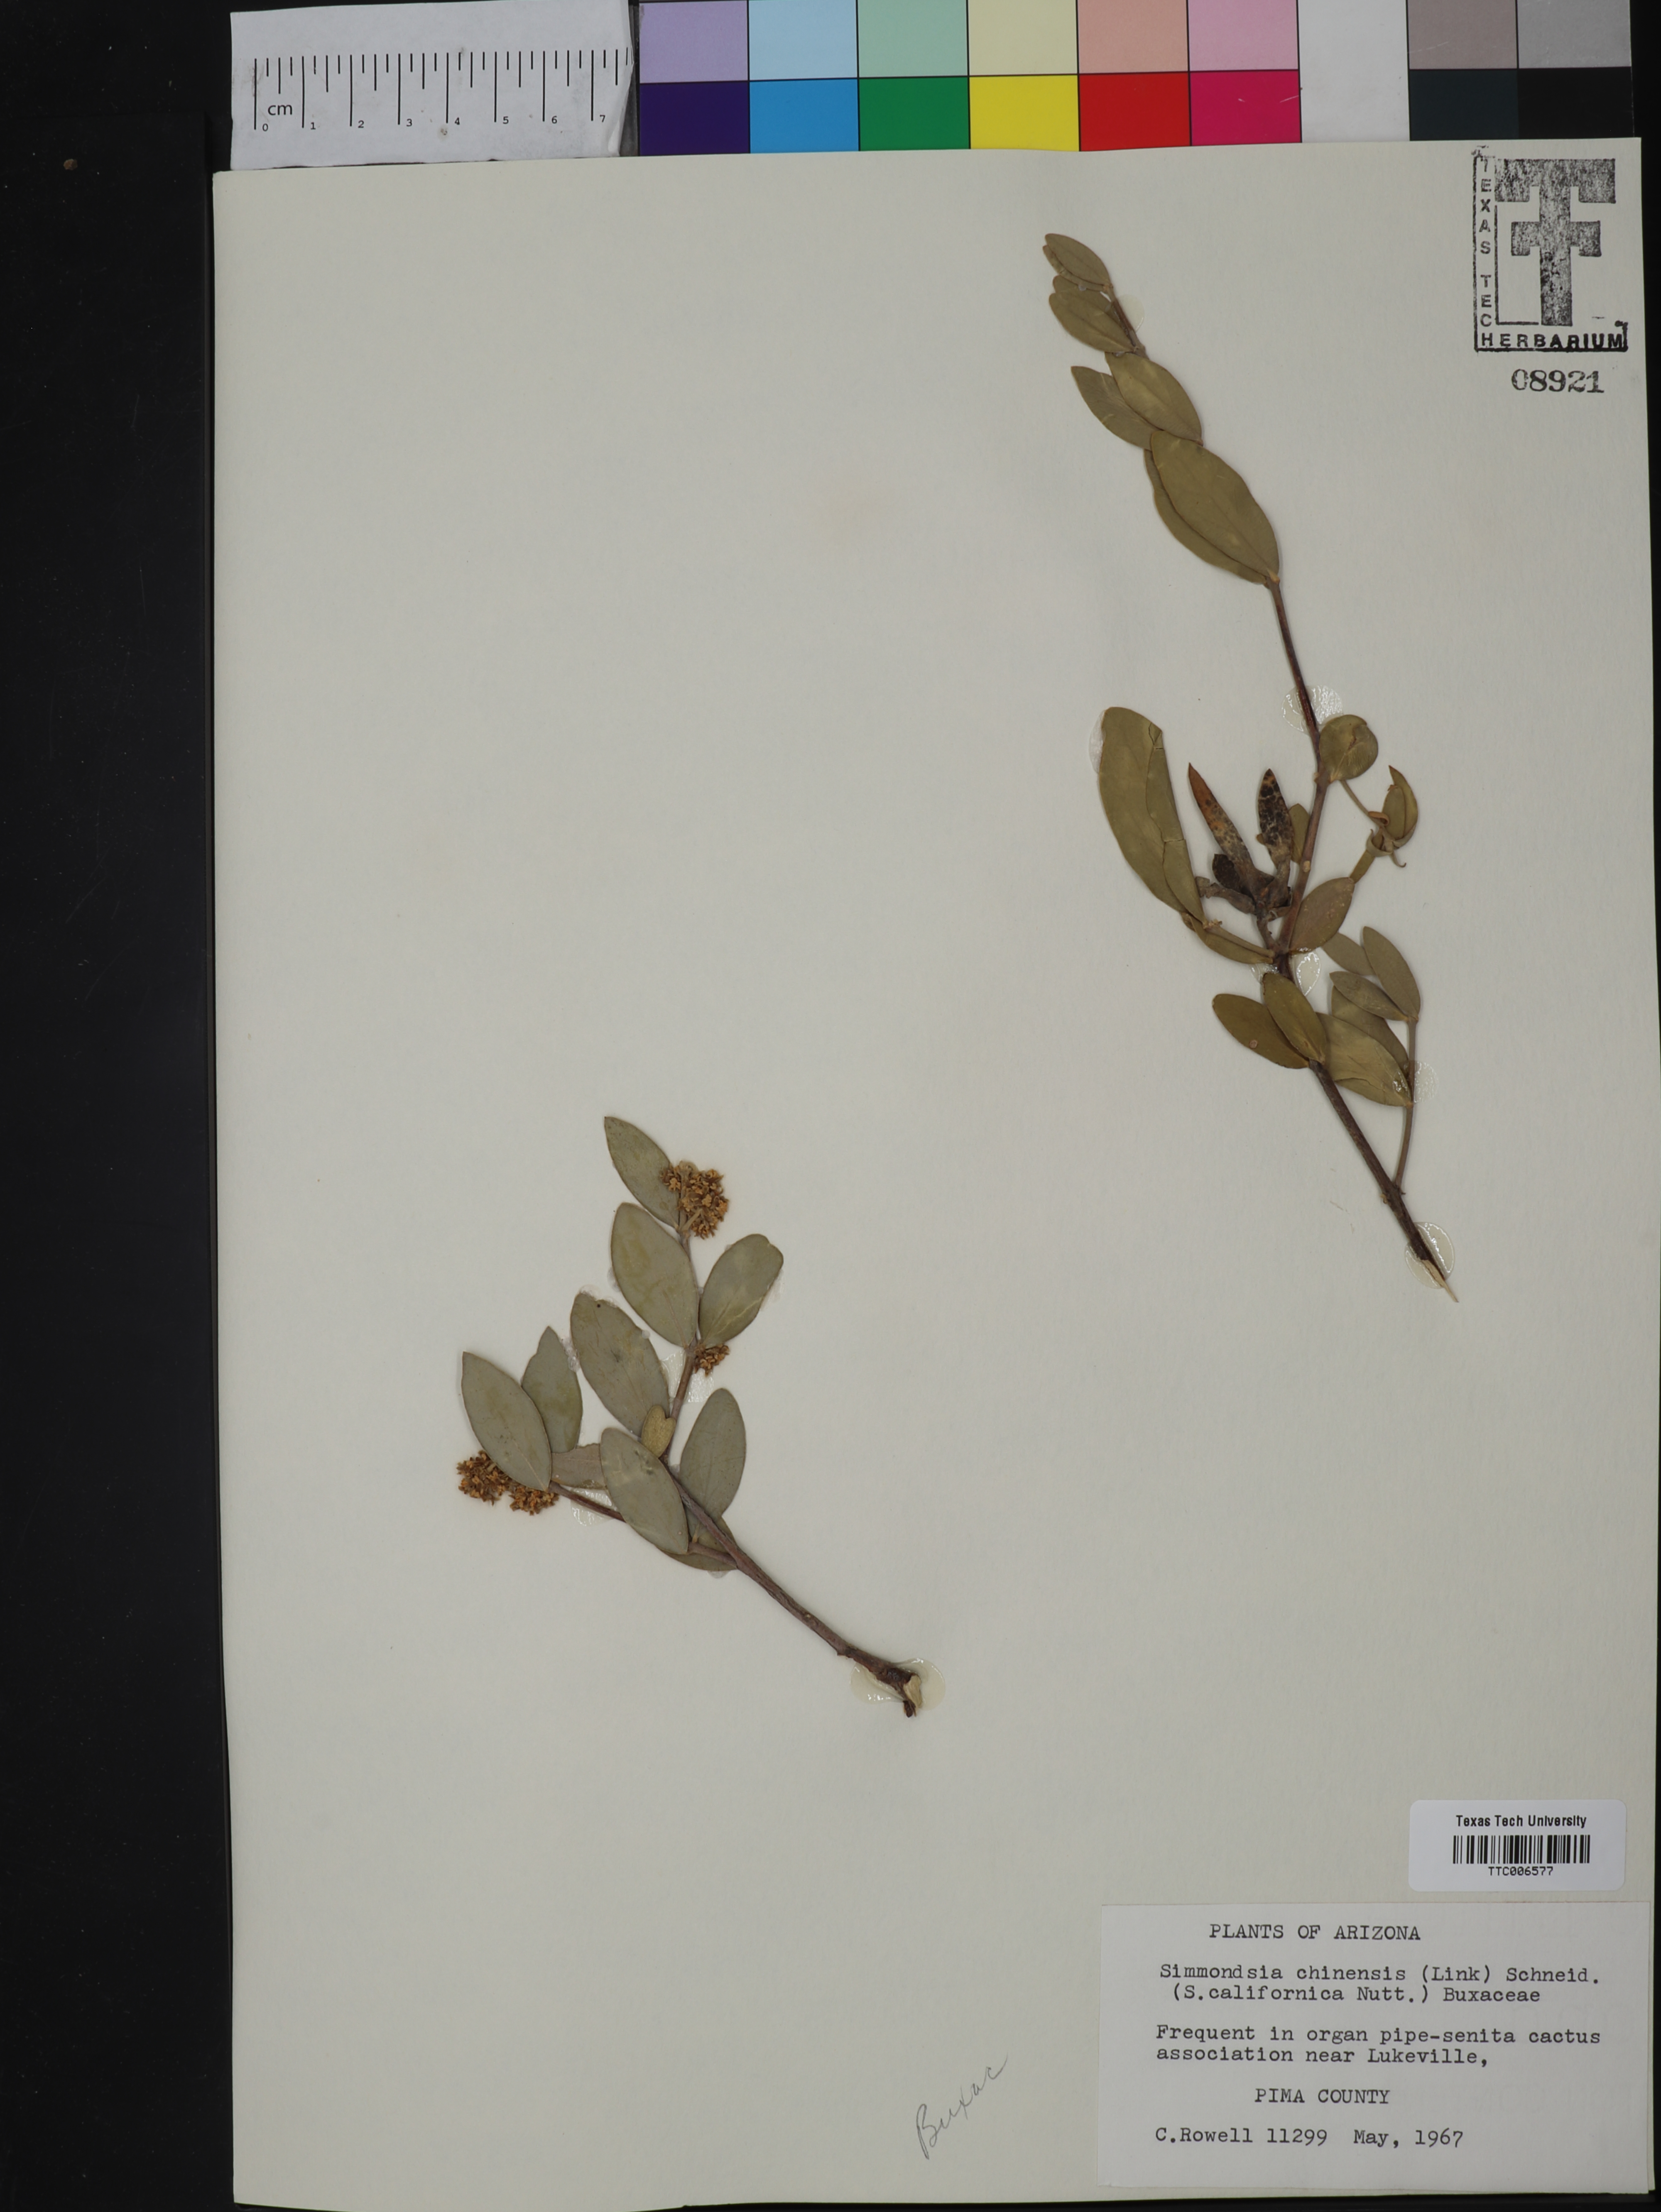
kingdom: Plantae
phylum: Tracheophyta
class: Magnoliopsida
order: Caryophyllales
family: Simmondsiaceae
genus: Simmondsia
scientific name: Simmondsia chinensis
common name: Jojoba
